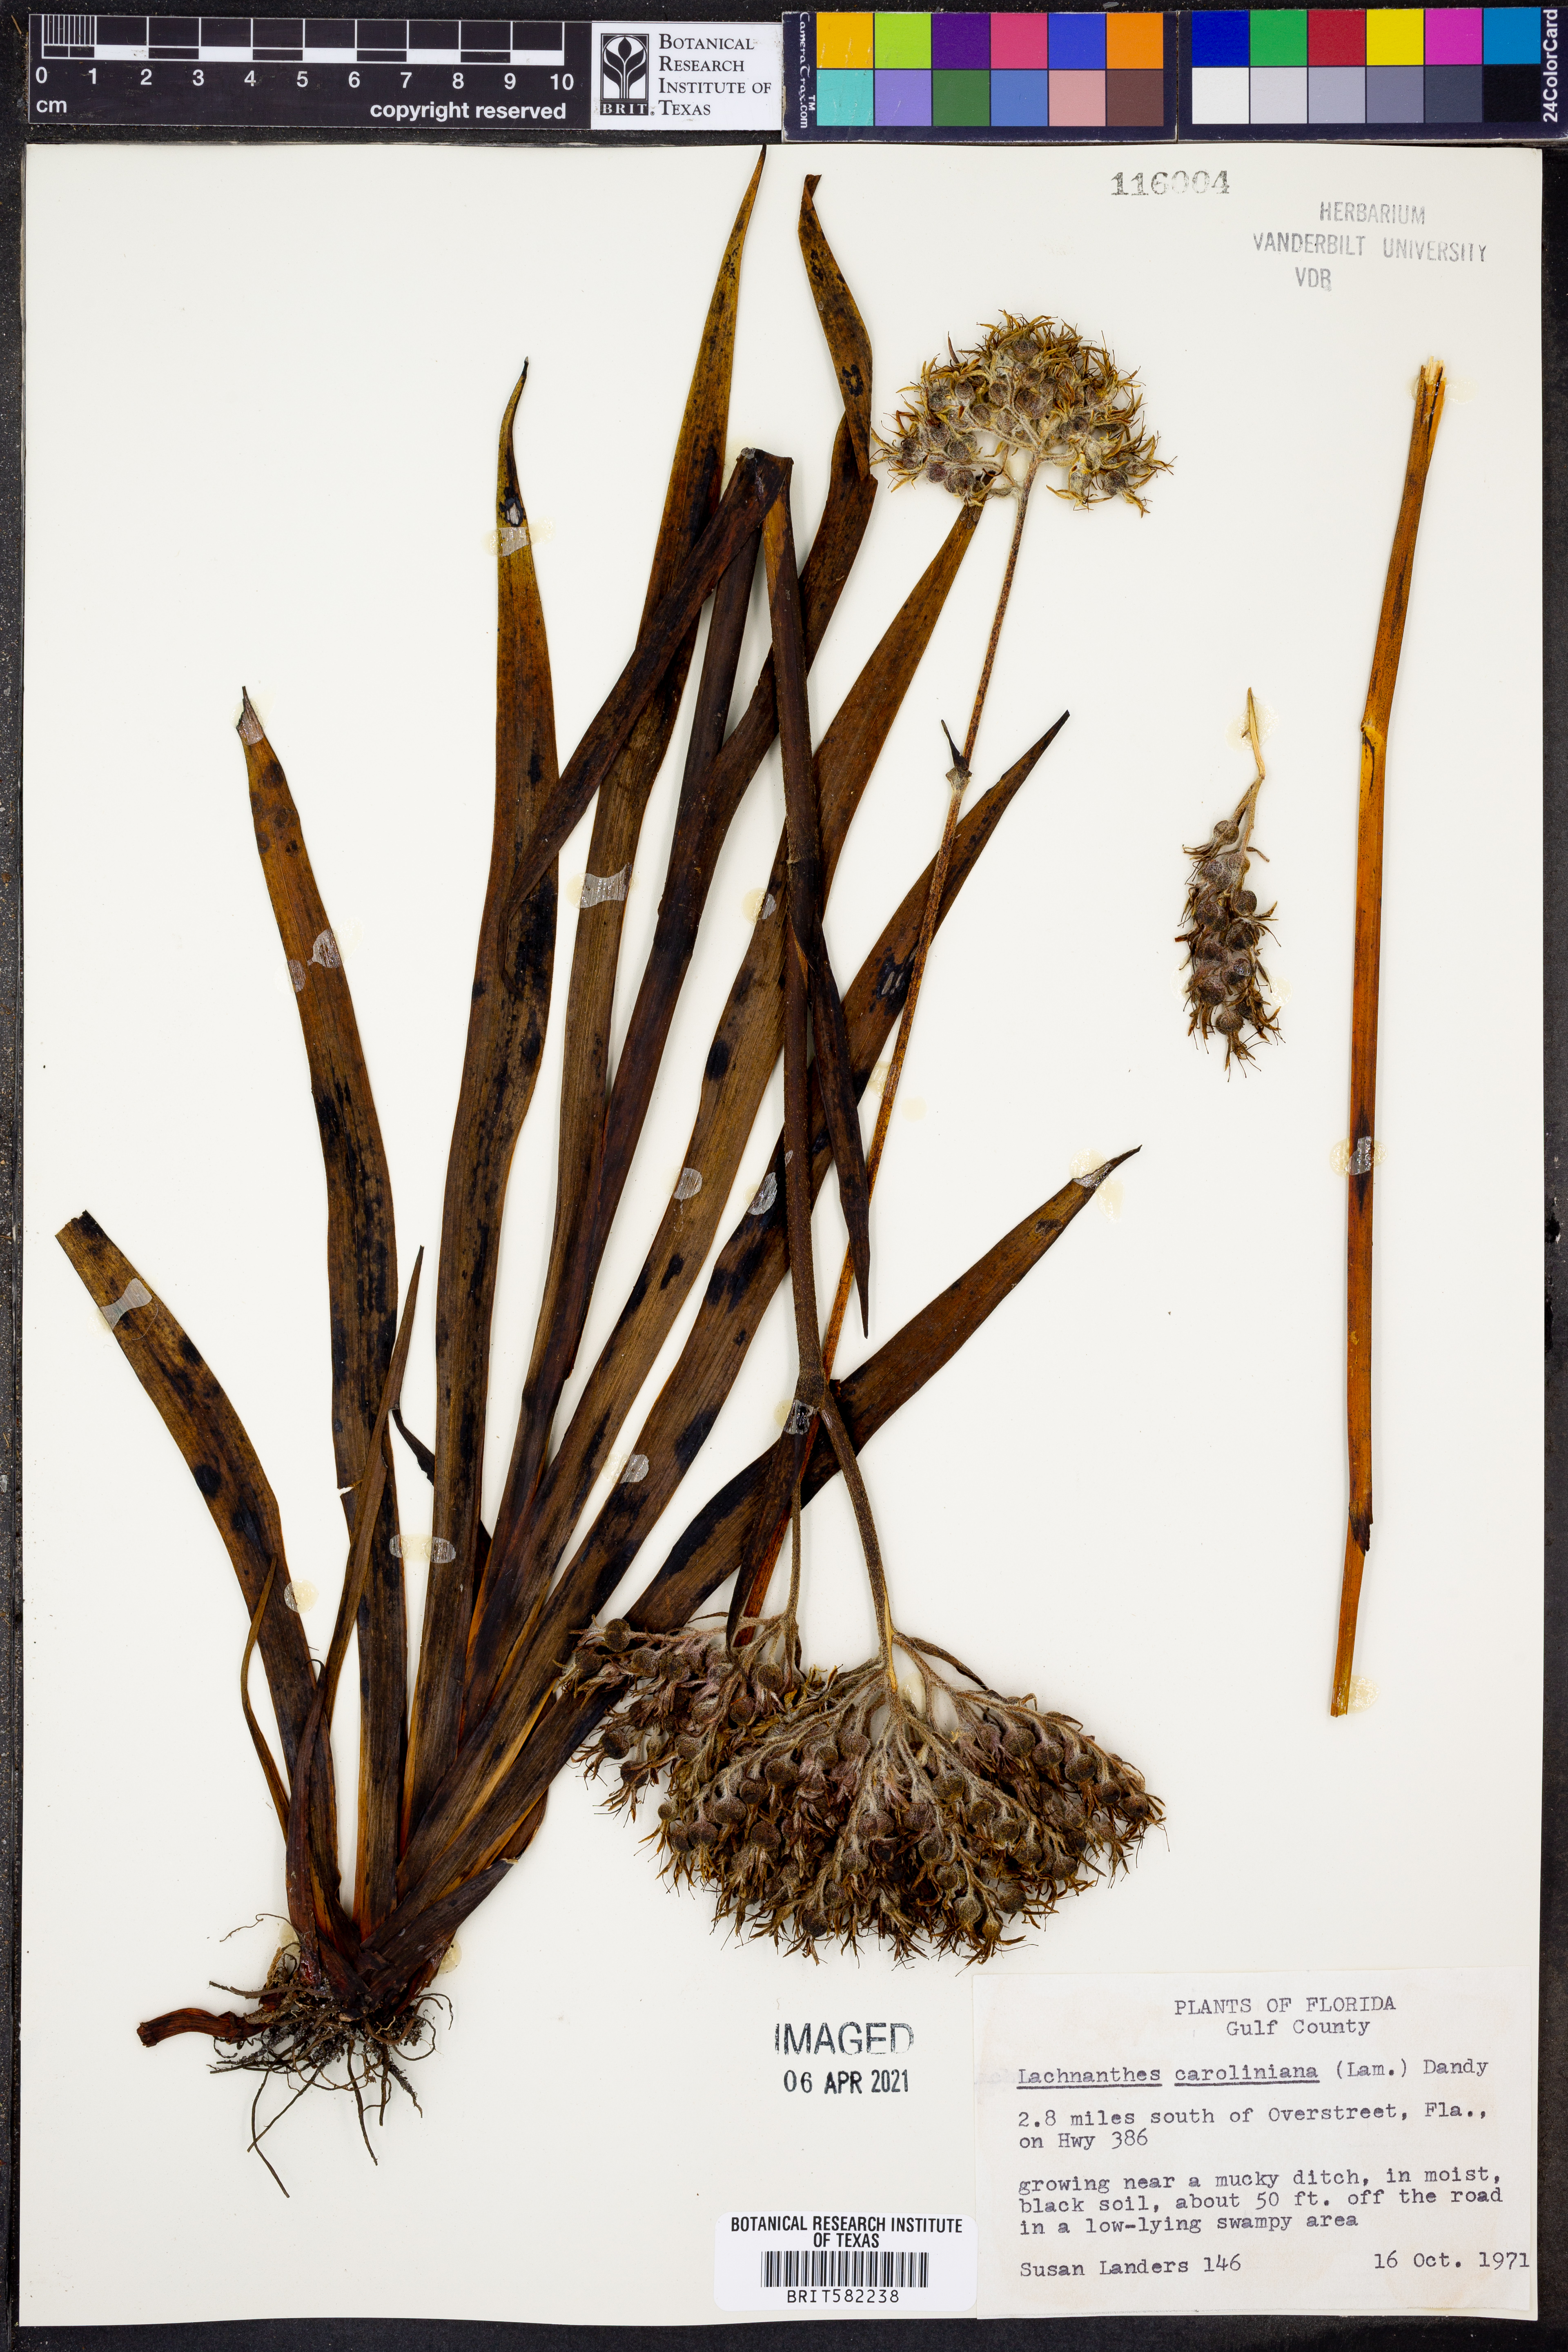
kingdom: Plantae
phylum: Tracheophyta
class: Liliopsida
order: Commelinales
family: Haemodoraceae
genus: Lachnanthes
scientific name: Lachnanthes caroliniana
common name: Carolina redroot
